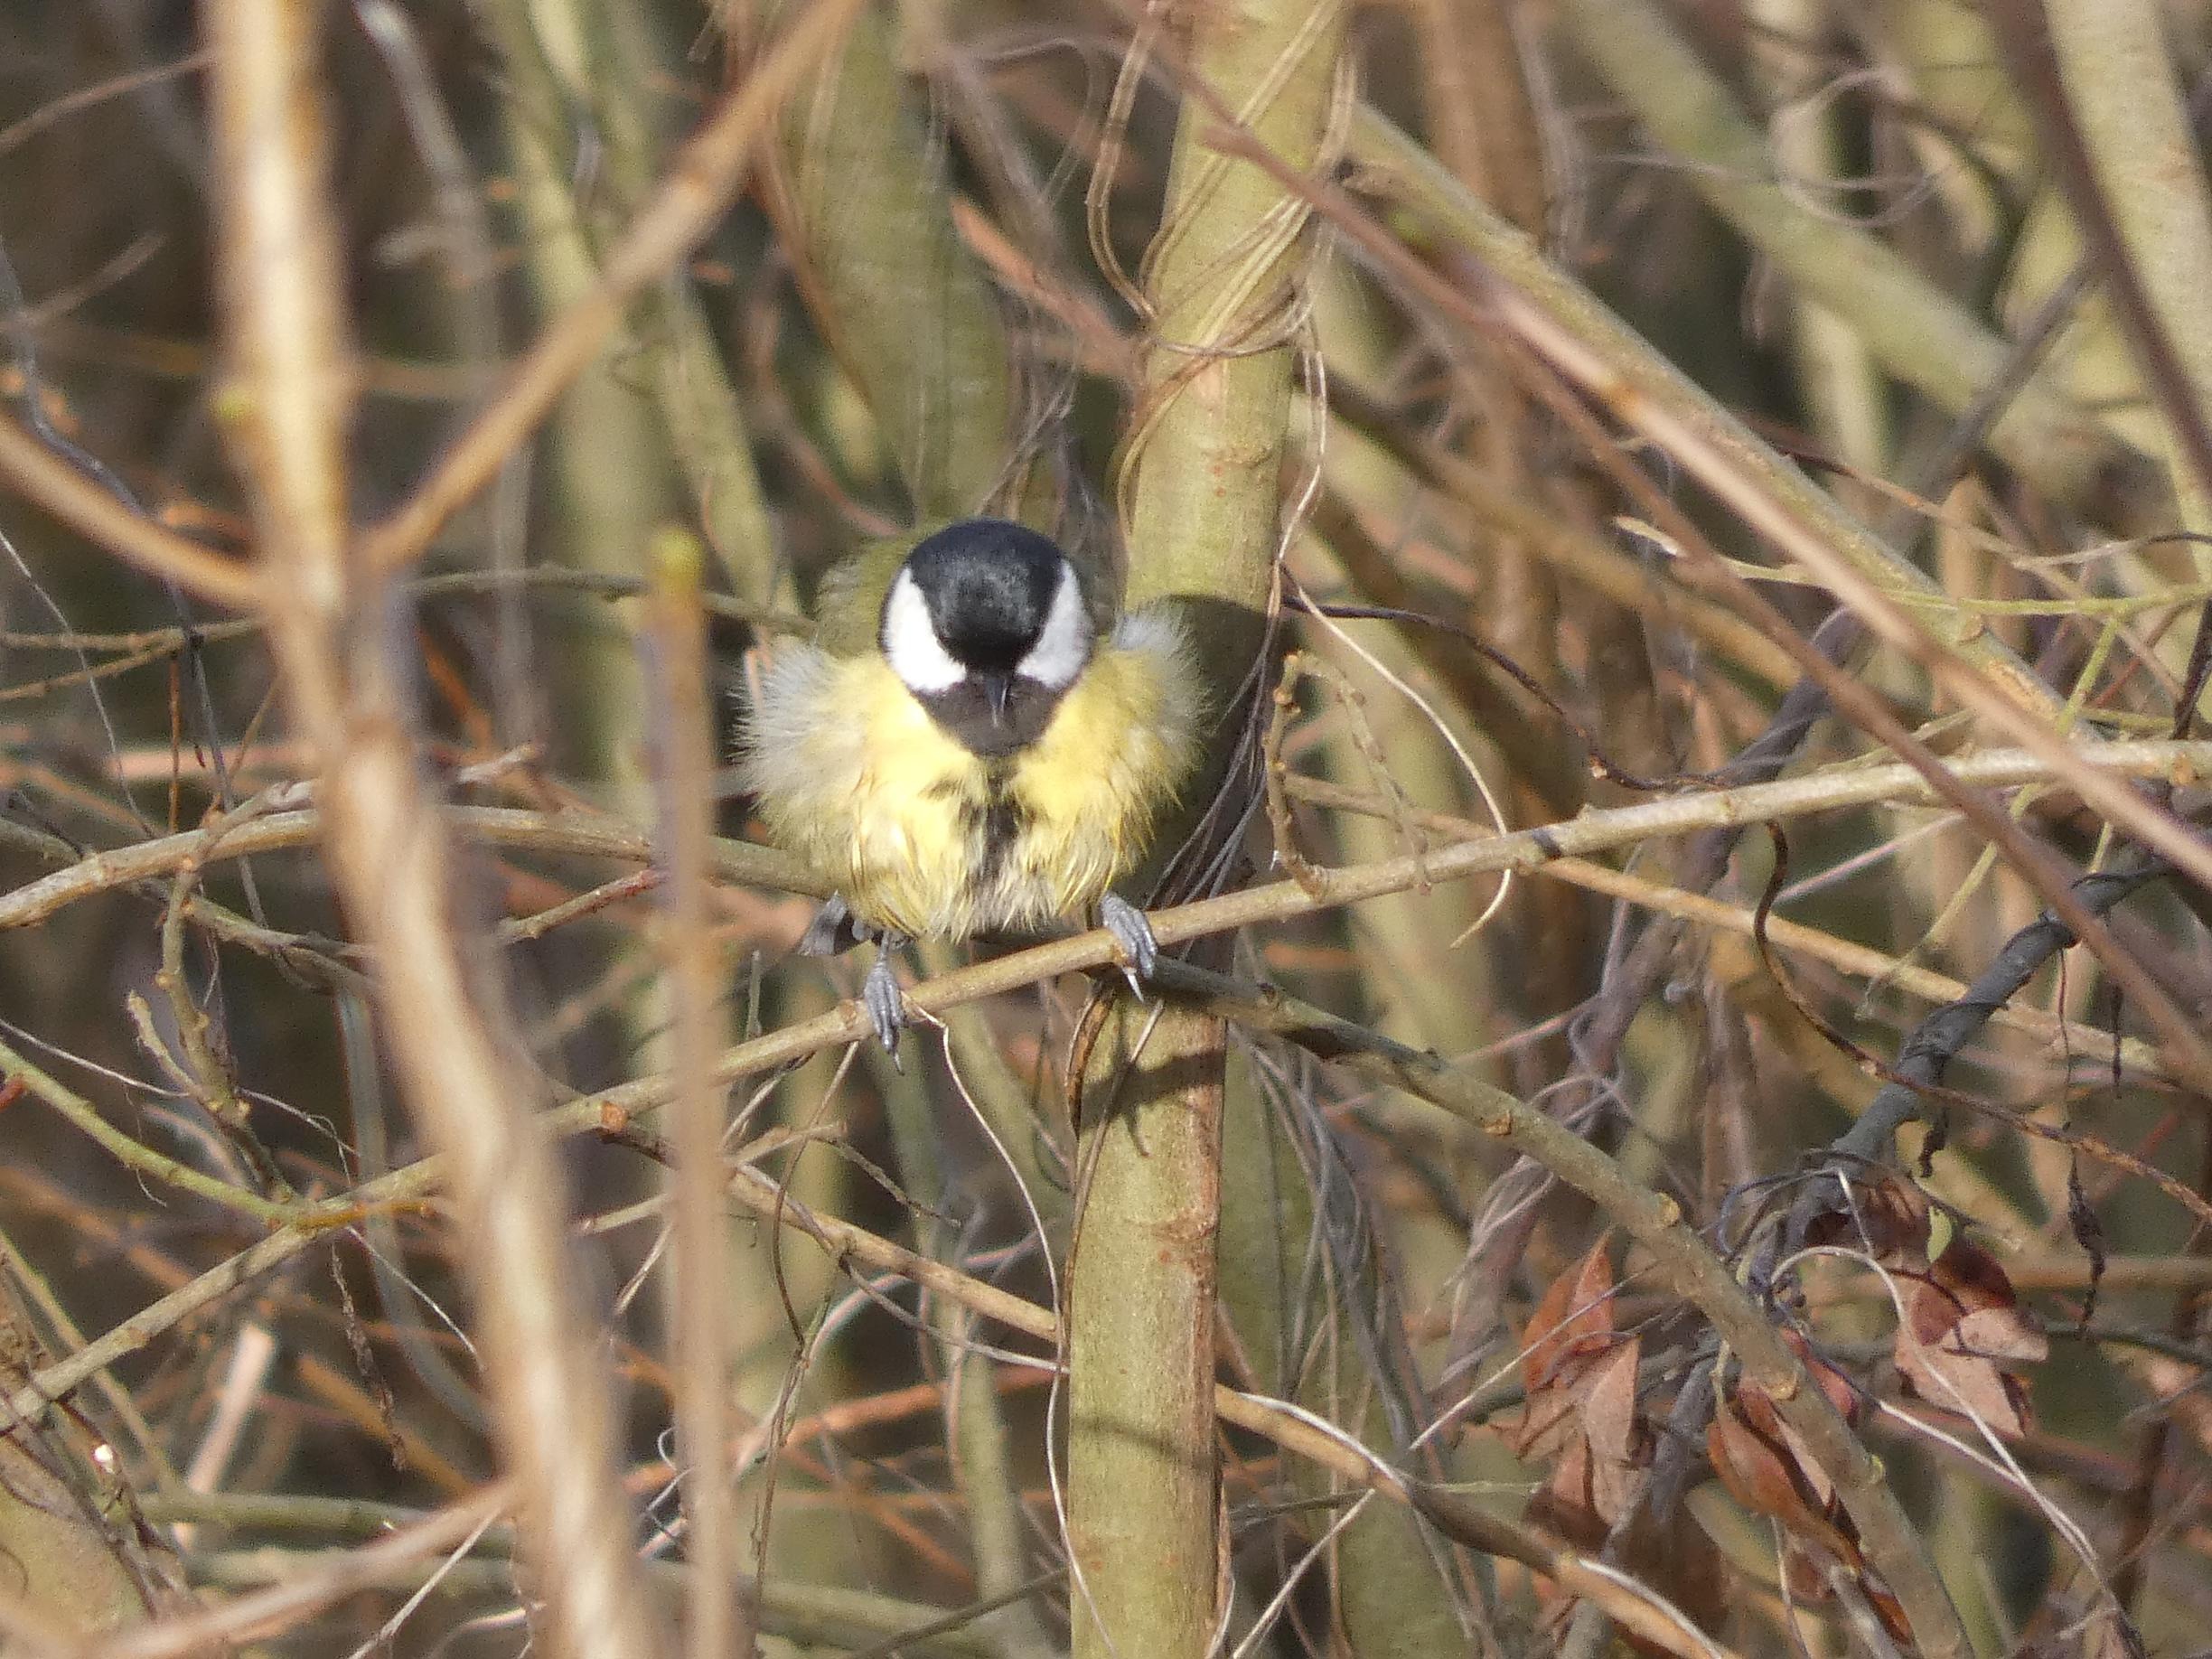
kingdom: Animalia
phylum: Chordata
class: Aves
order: Passeriformes
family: Paridae
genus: Parus
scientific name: Parus major
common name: Musvit
